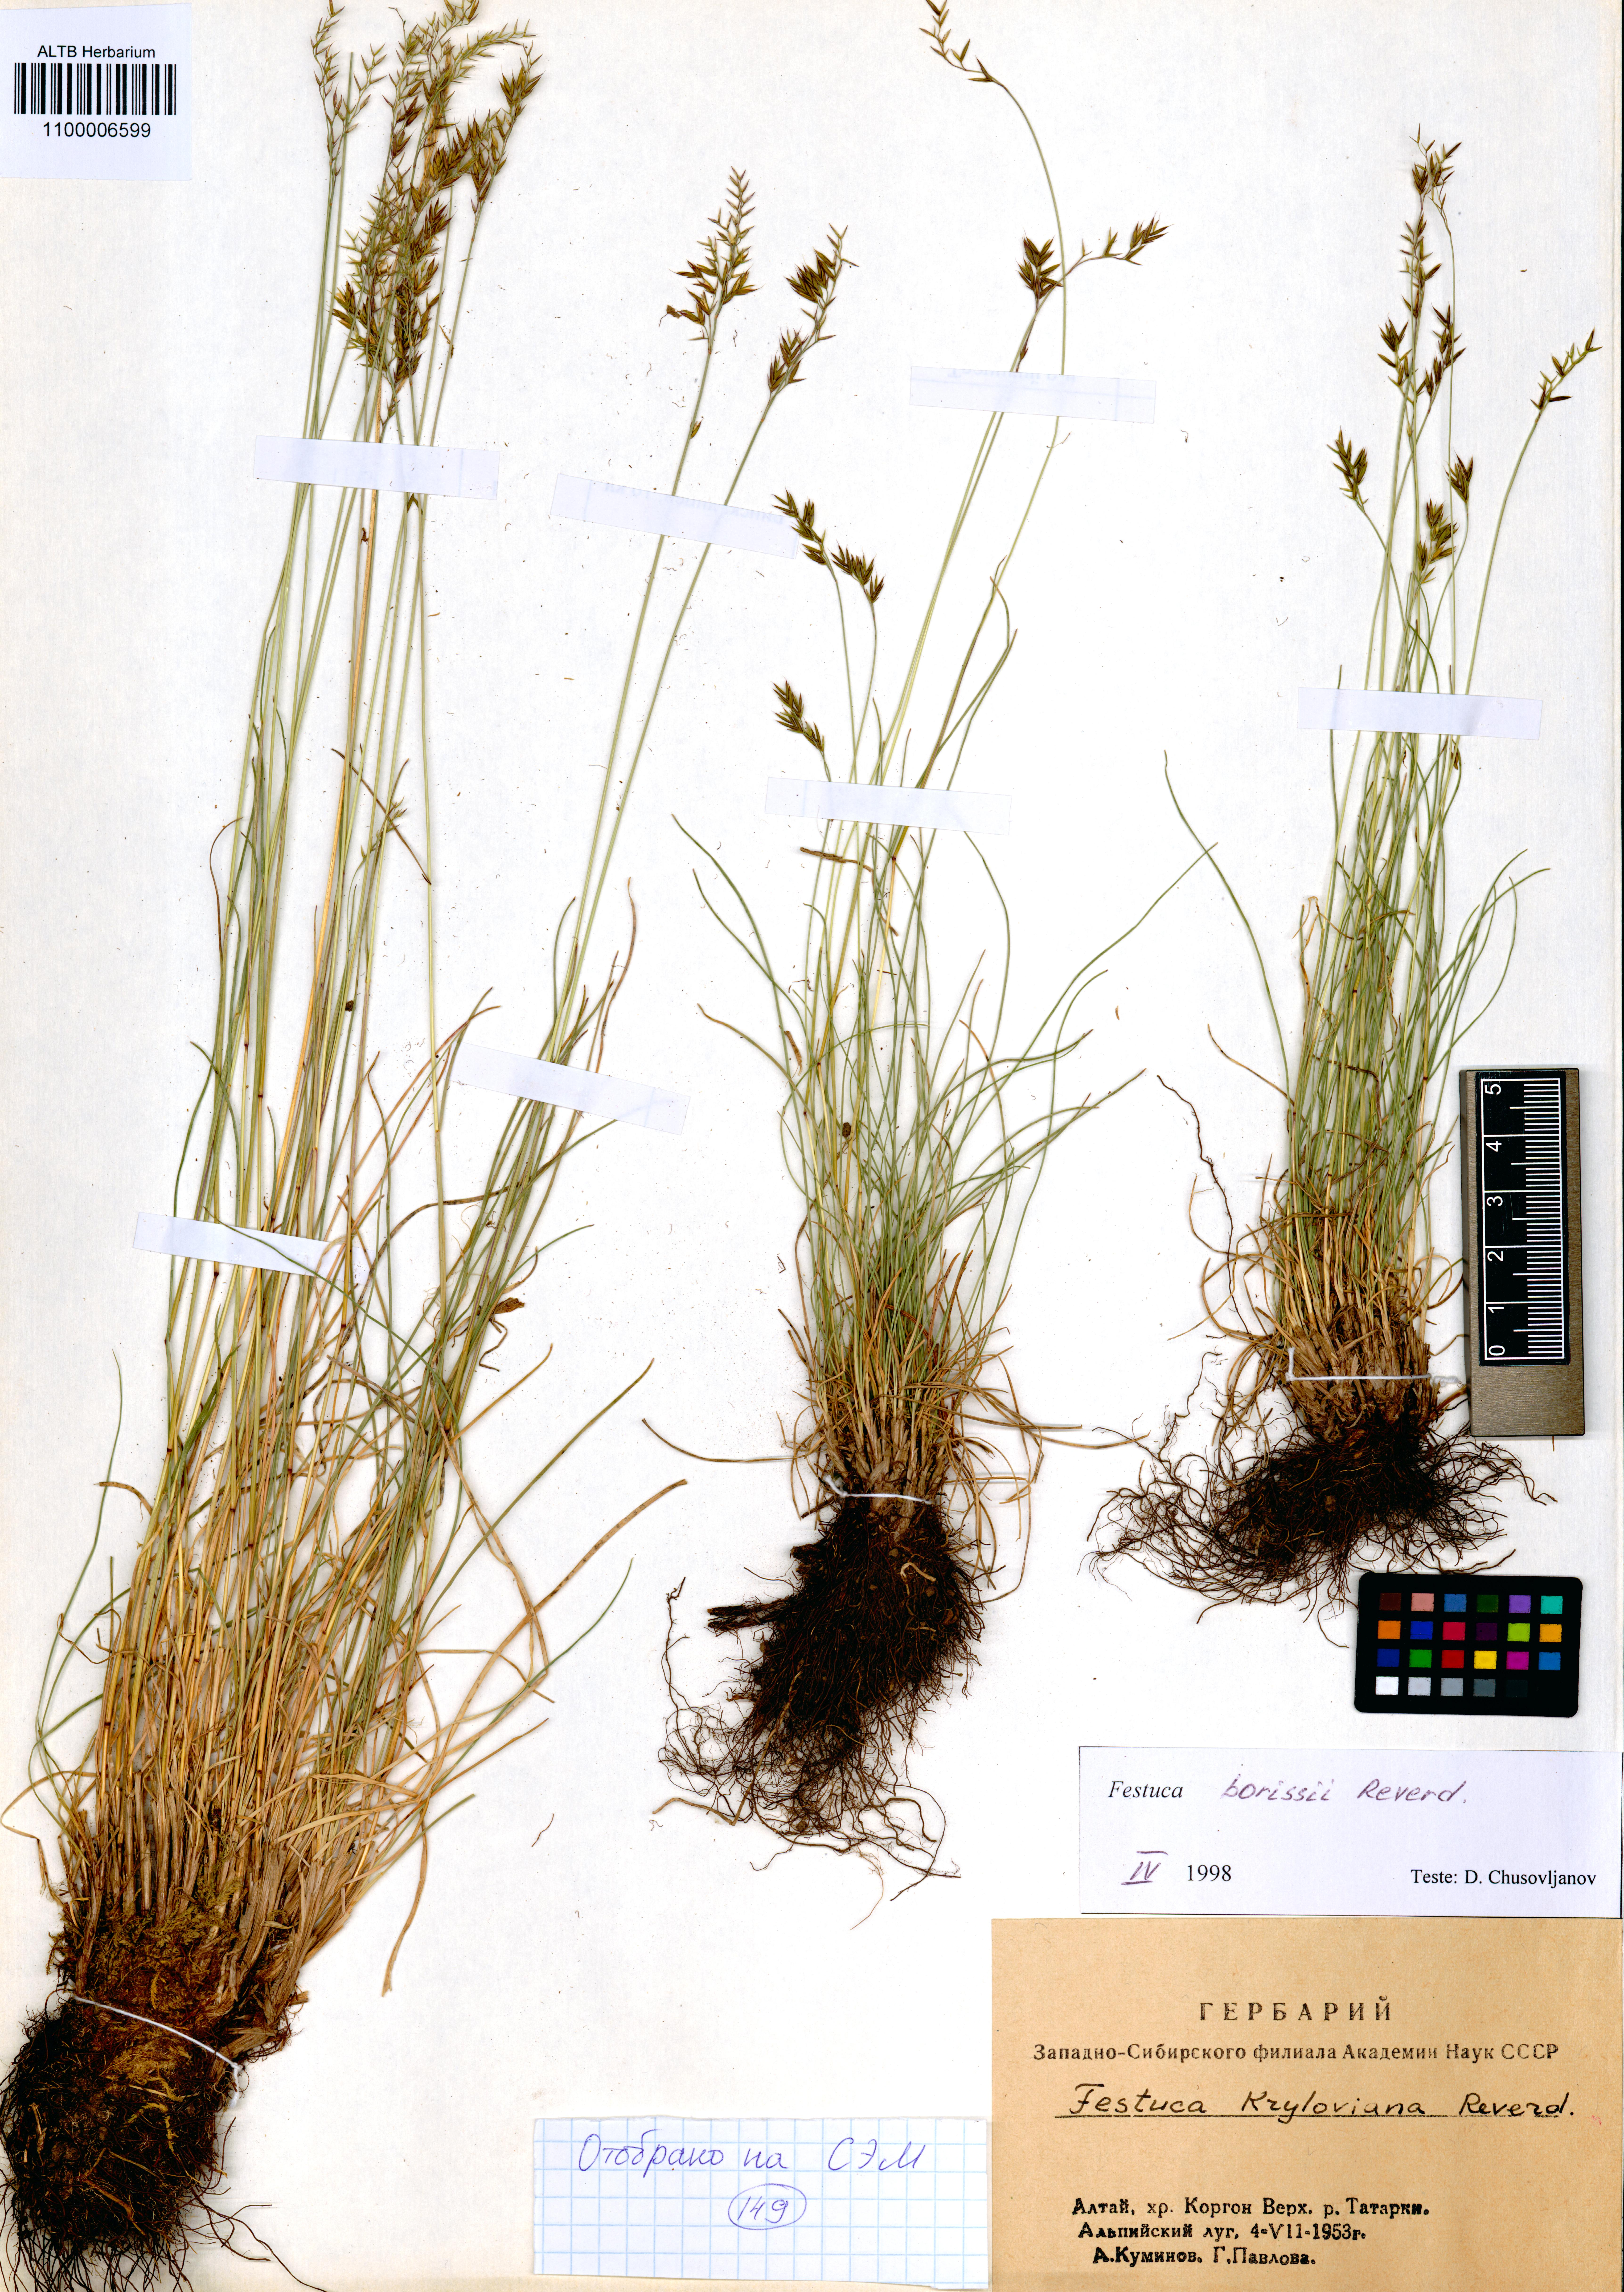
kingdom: Plantae
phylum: Tracheophyta
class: Liliopsida
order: Poales
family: Poaceae
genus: Festuca
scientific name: Festuca borissii
